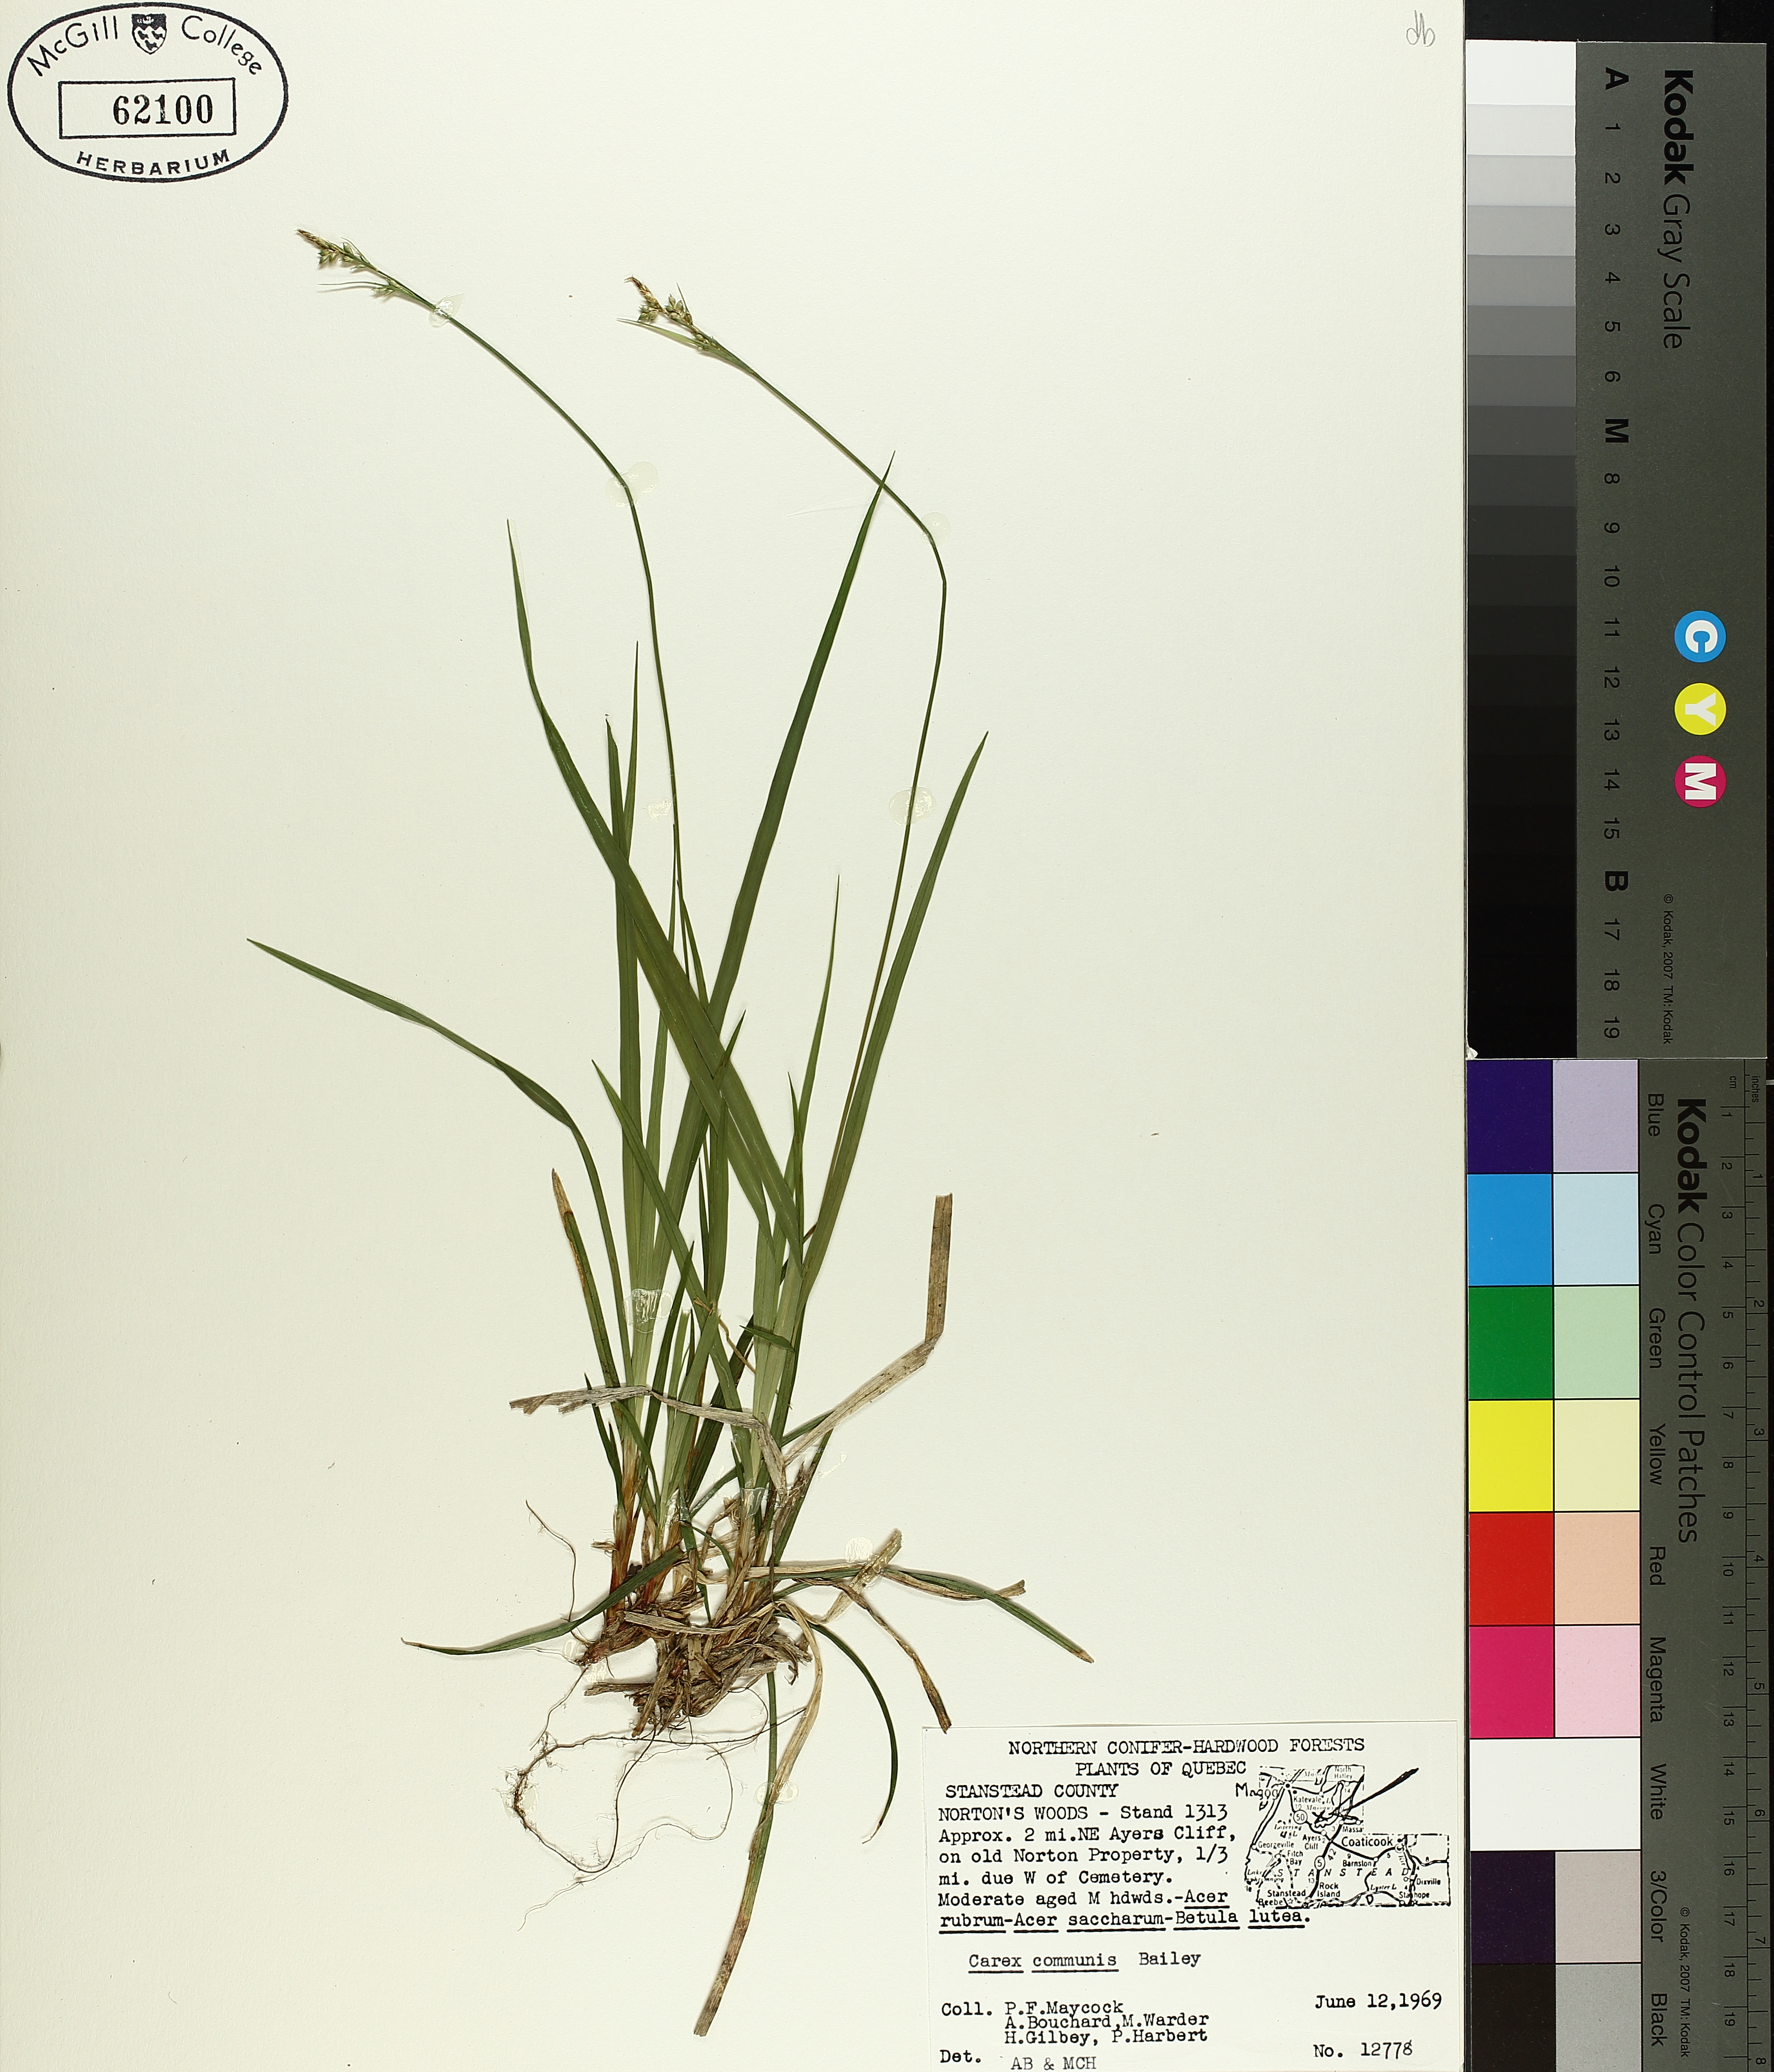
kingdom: Plantae
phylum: Tracheophyta
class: Liliopsida
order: Poales
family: Cyperaceae
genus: Carex
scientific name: Carex communis
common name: Colonial oak sedge
